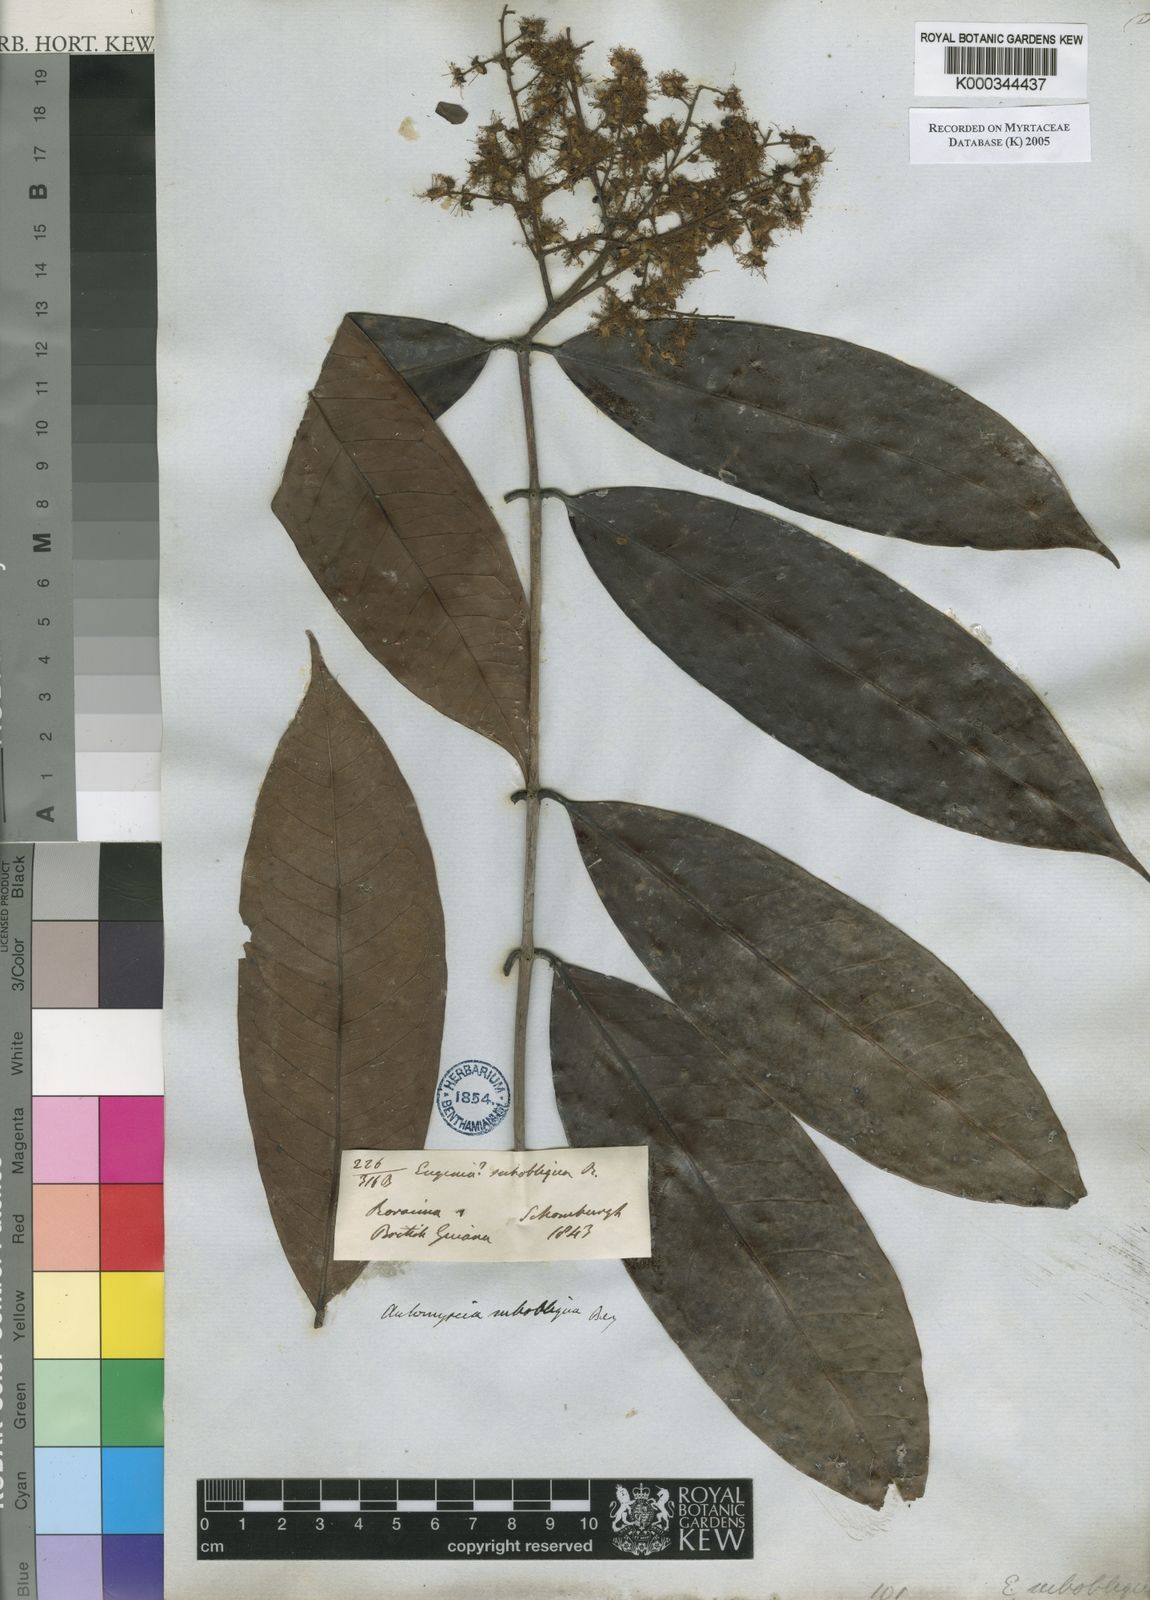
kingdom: Plantae
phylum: Tracheophyta
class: Magnoliopsida
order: Myrtales
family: Myrtaceae
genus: Myrcia
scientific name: Myrcia subobliqua
